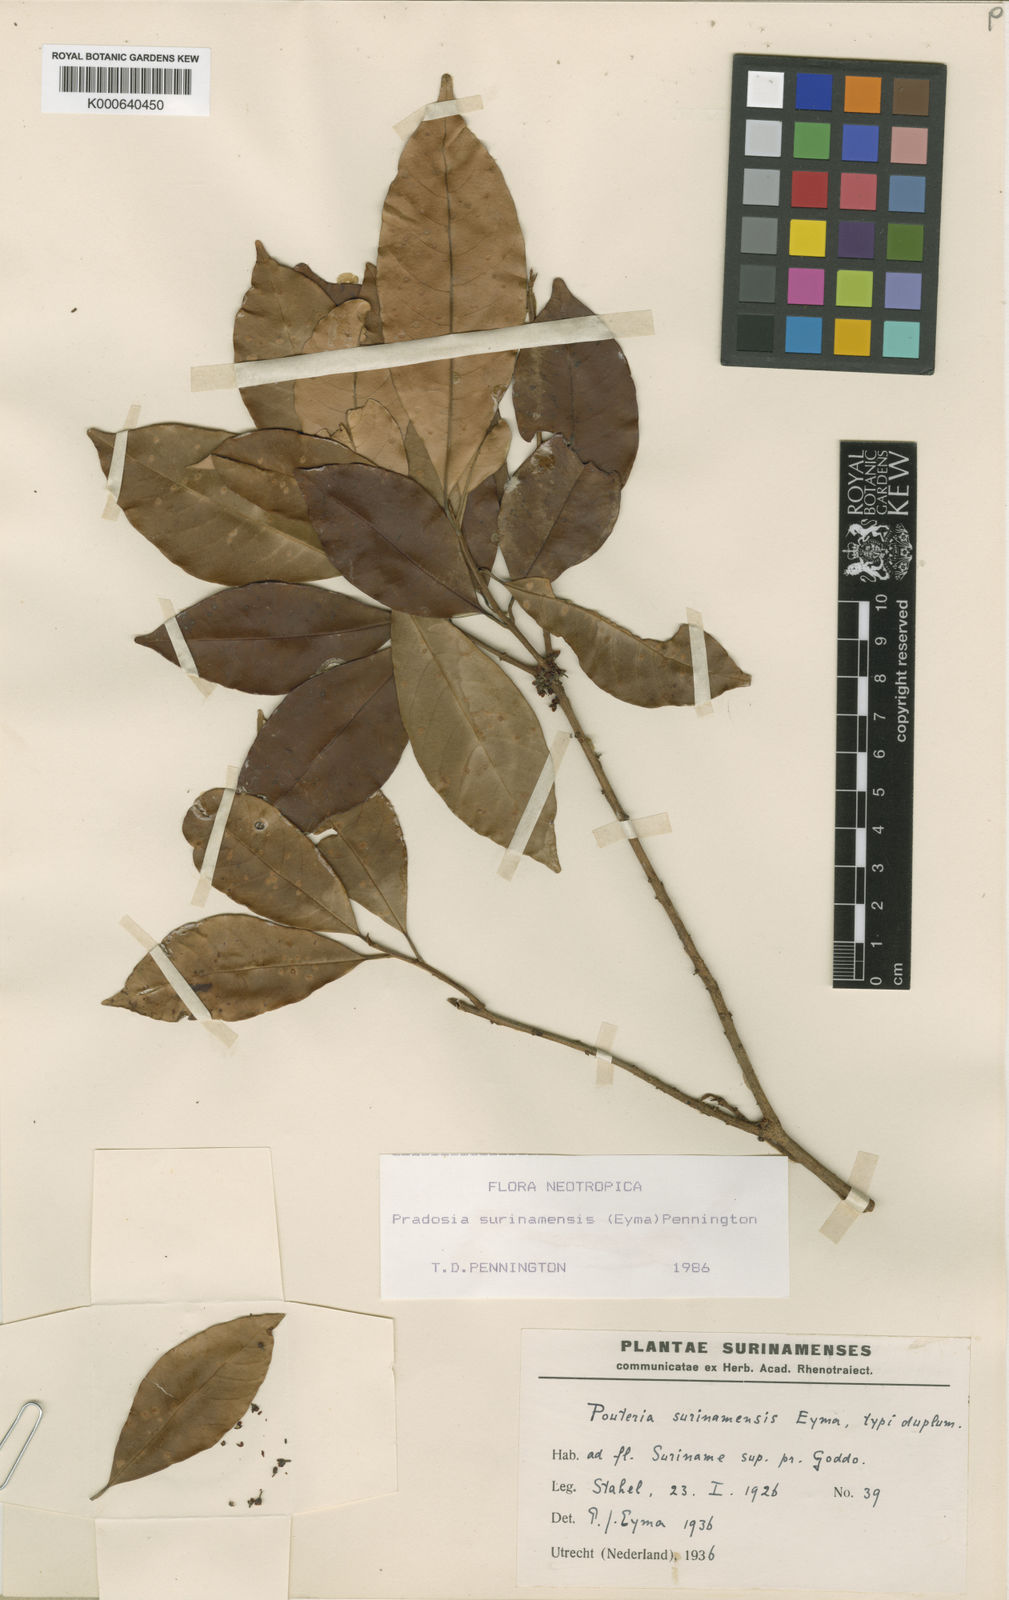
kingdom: Plantae
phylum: Tracheophyta
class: Magnoliopsida
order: Ericales
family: Sapotaceae
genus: Pradosia
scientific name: Pradosia surinamensis
